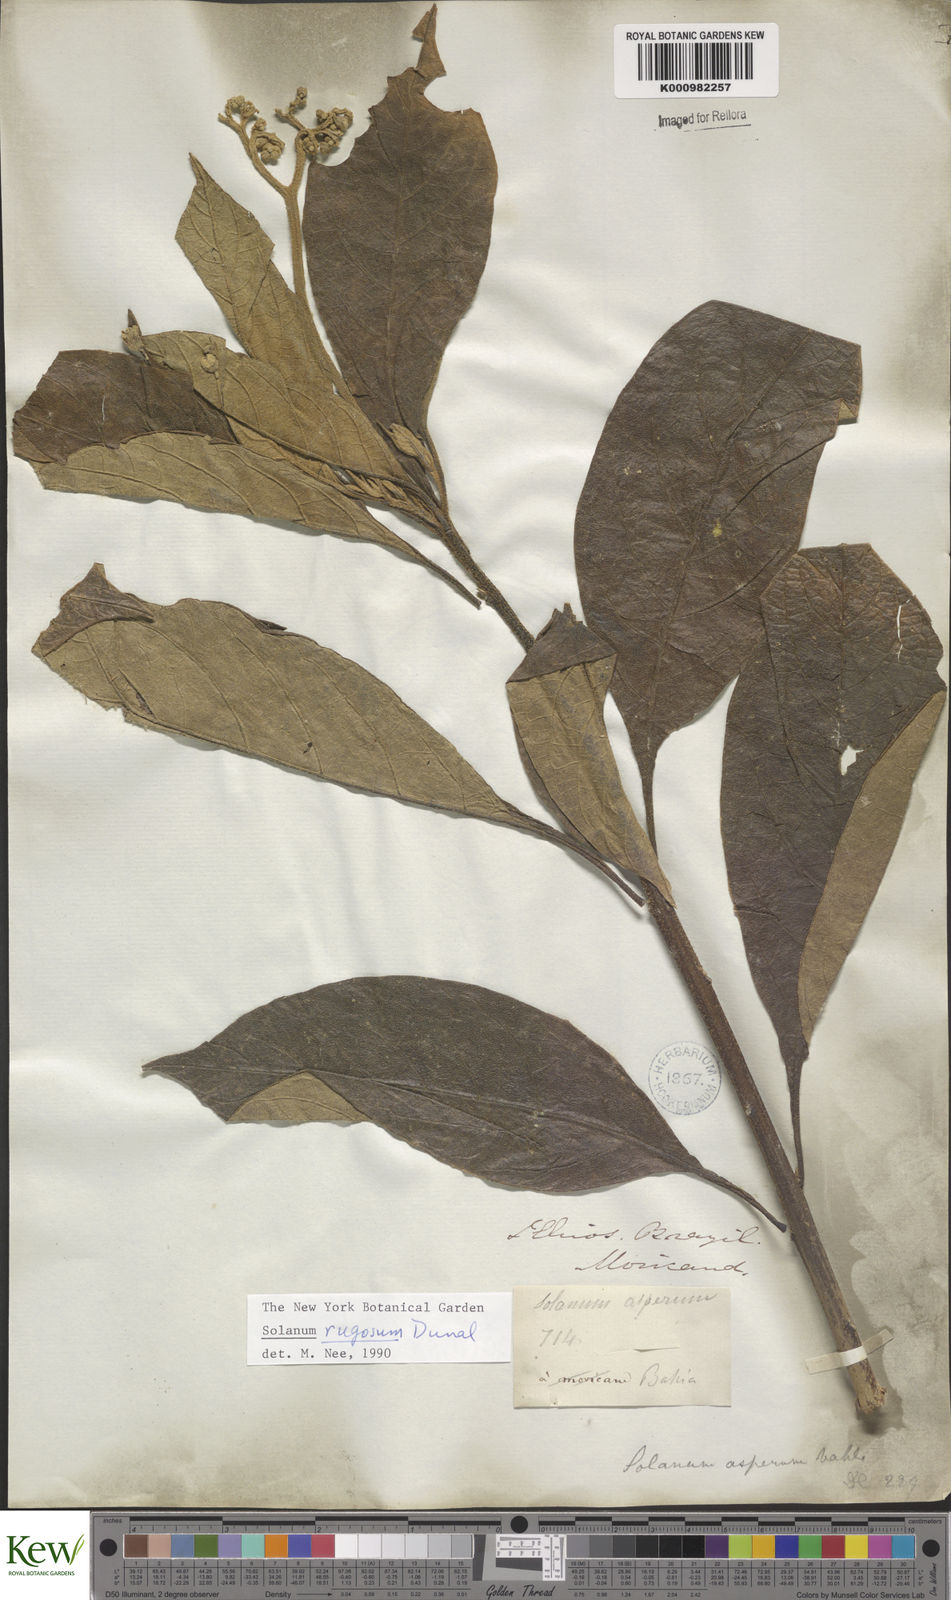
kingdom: Plantae
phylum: Tracheophyta
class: Magnoliopsida
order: Solanales
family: Solanaceae
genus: Solanum
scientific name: Solanum rugosum
